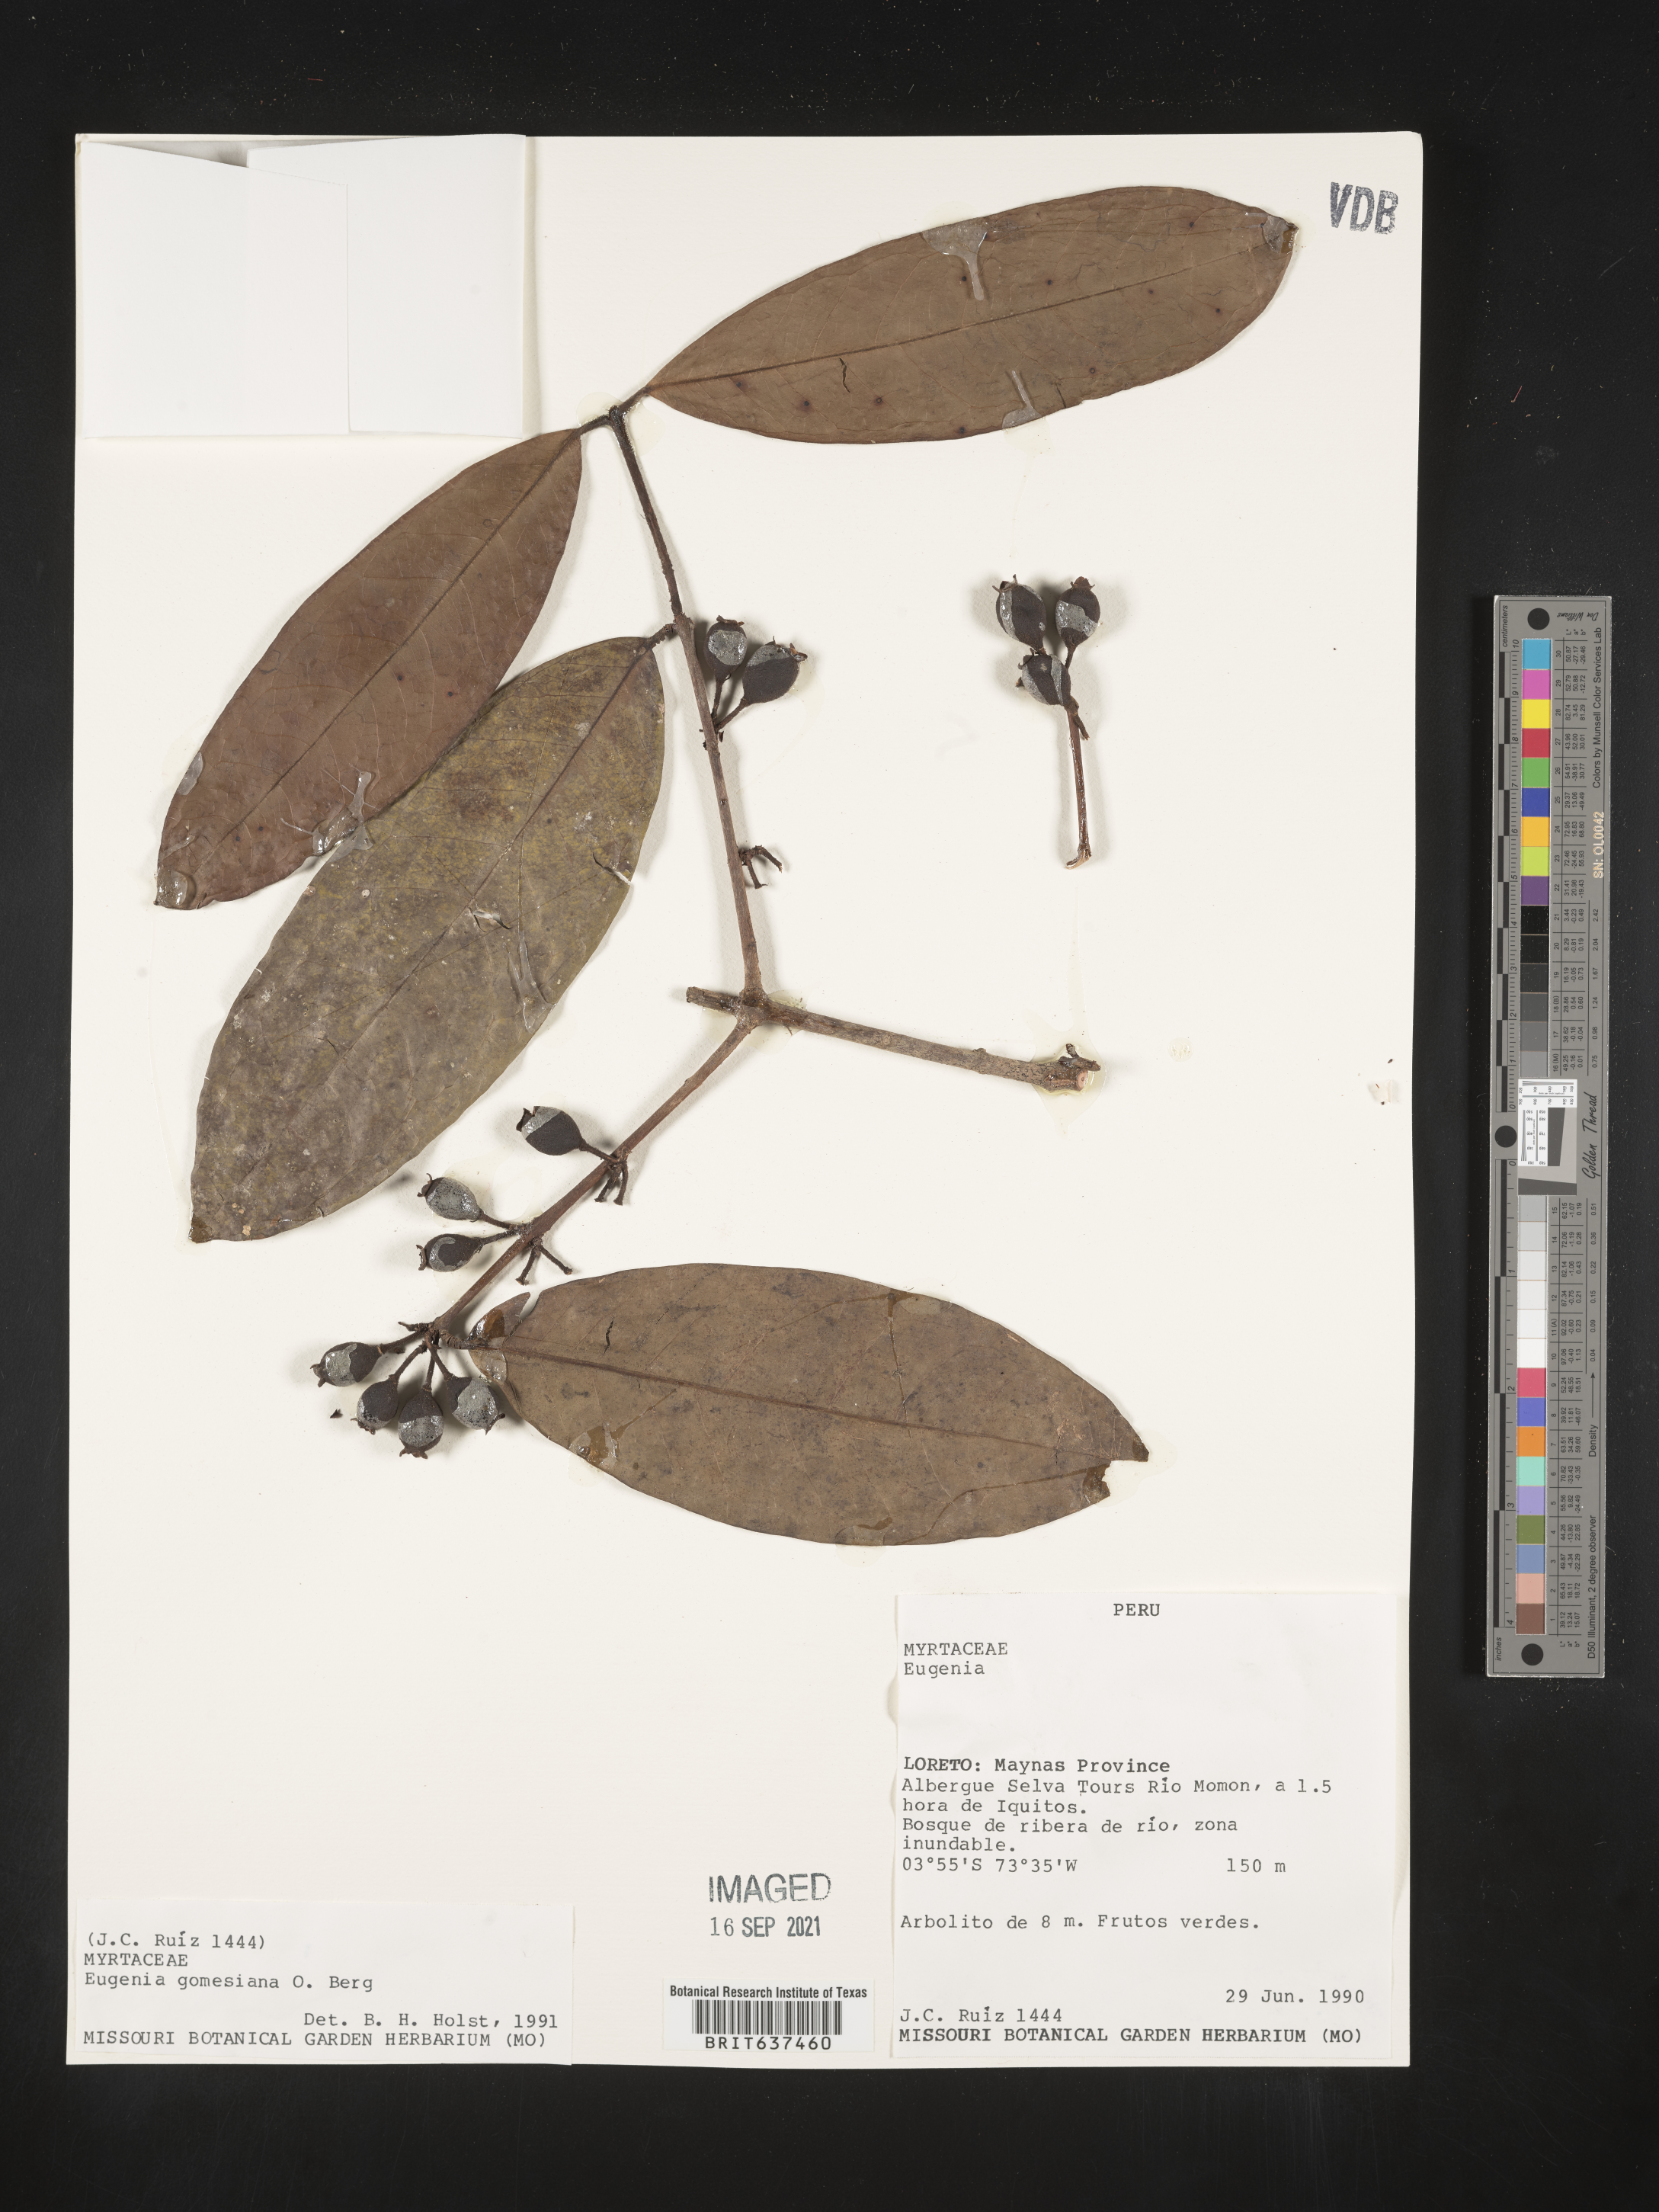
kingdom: Plantae
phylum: Tracheophyta
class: Magnoliopsida
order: Myrtales
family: Myrtaceae
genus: Eugenia
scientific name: Eugenia
